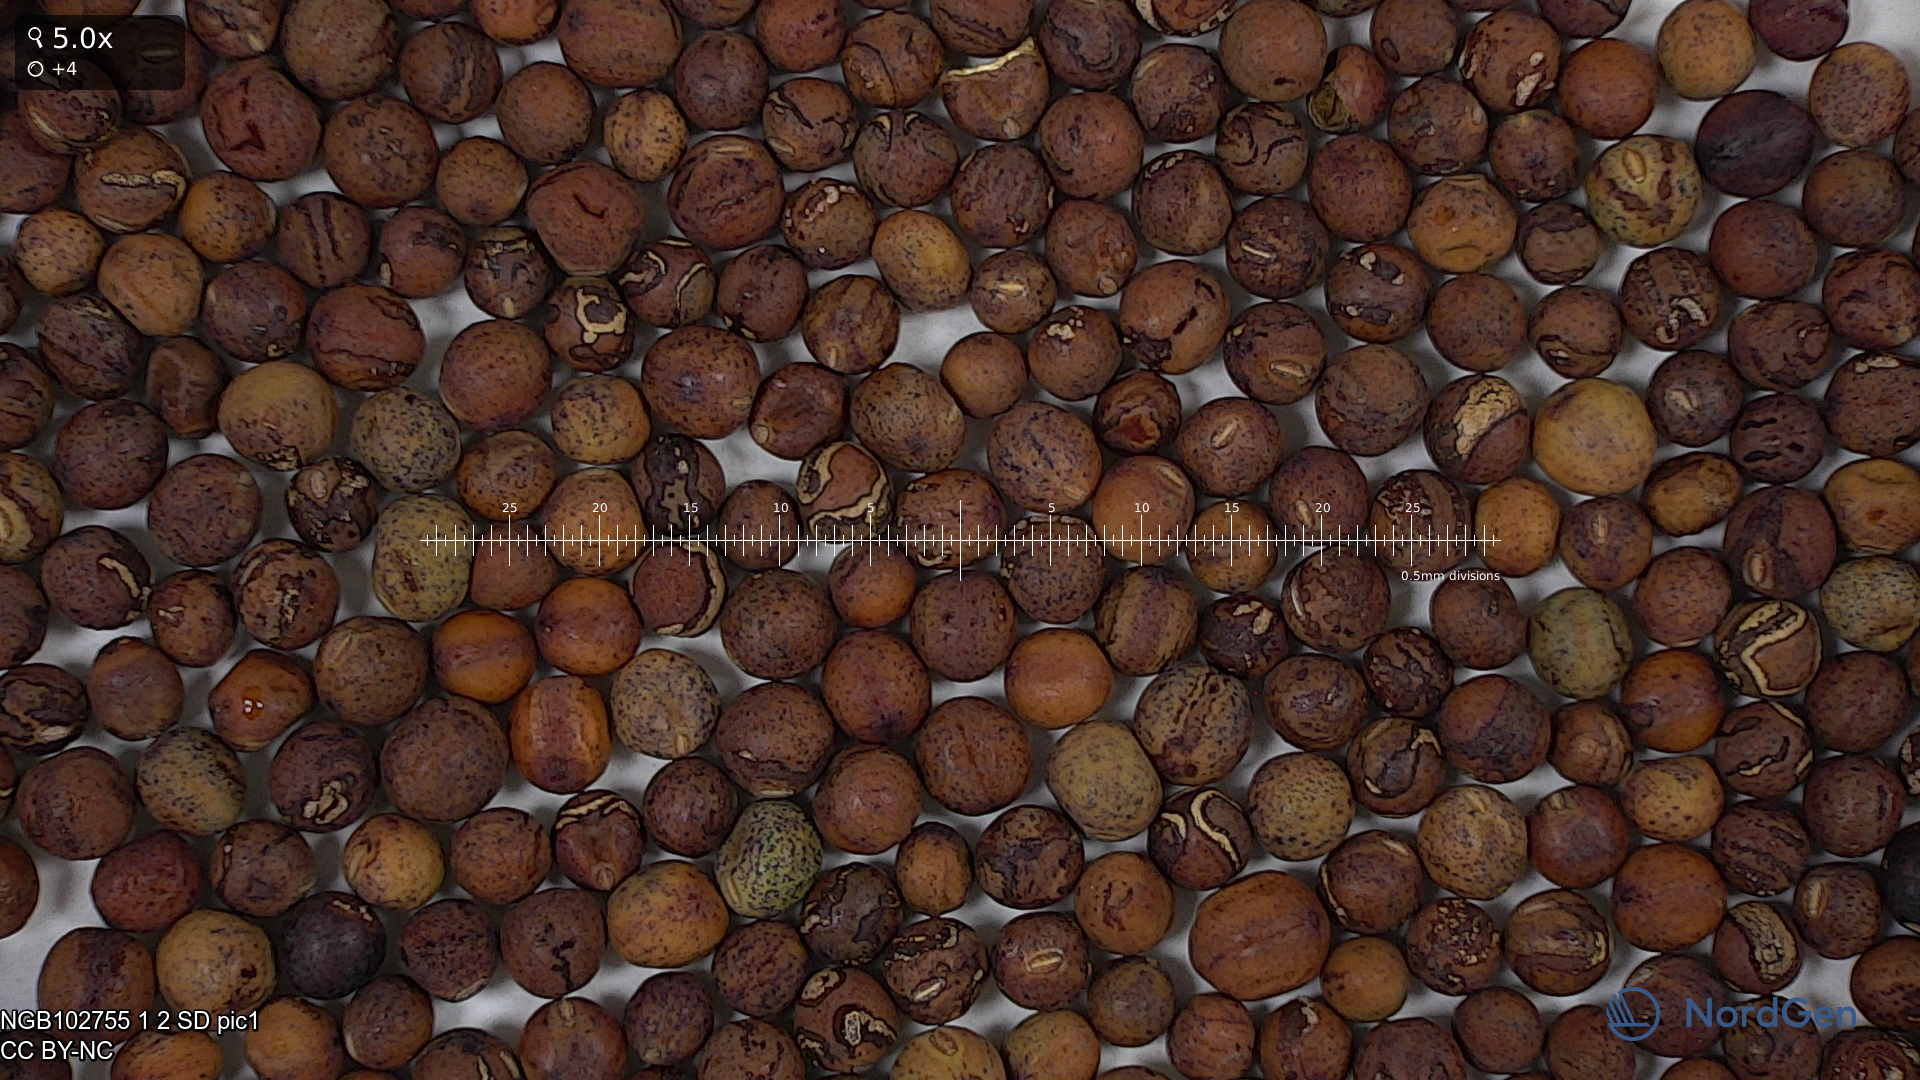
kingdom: Plantae
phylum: Tracheophyta
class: Magnoliopsida
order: Fabales
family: Fabaceae
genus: Lathyrus
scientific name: Lathyrus oleraceus
